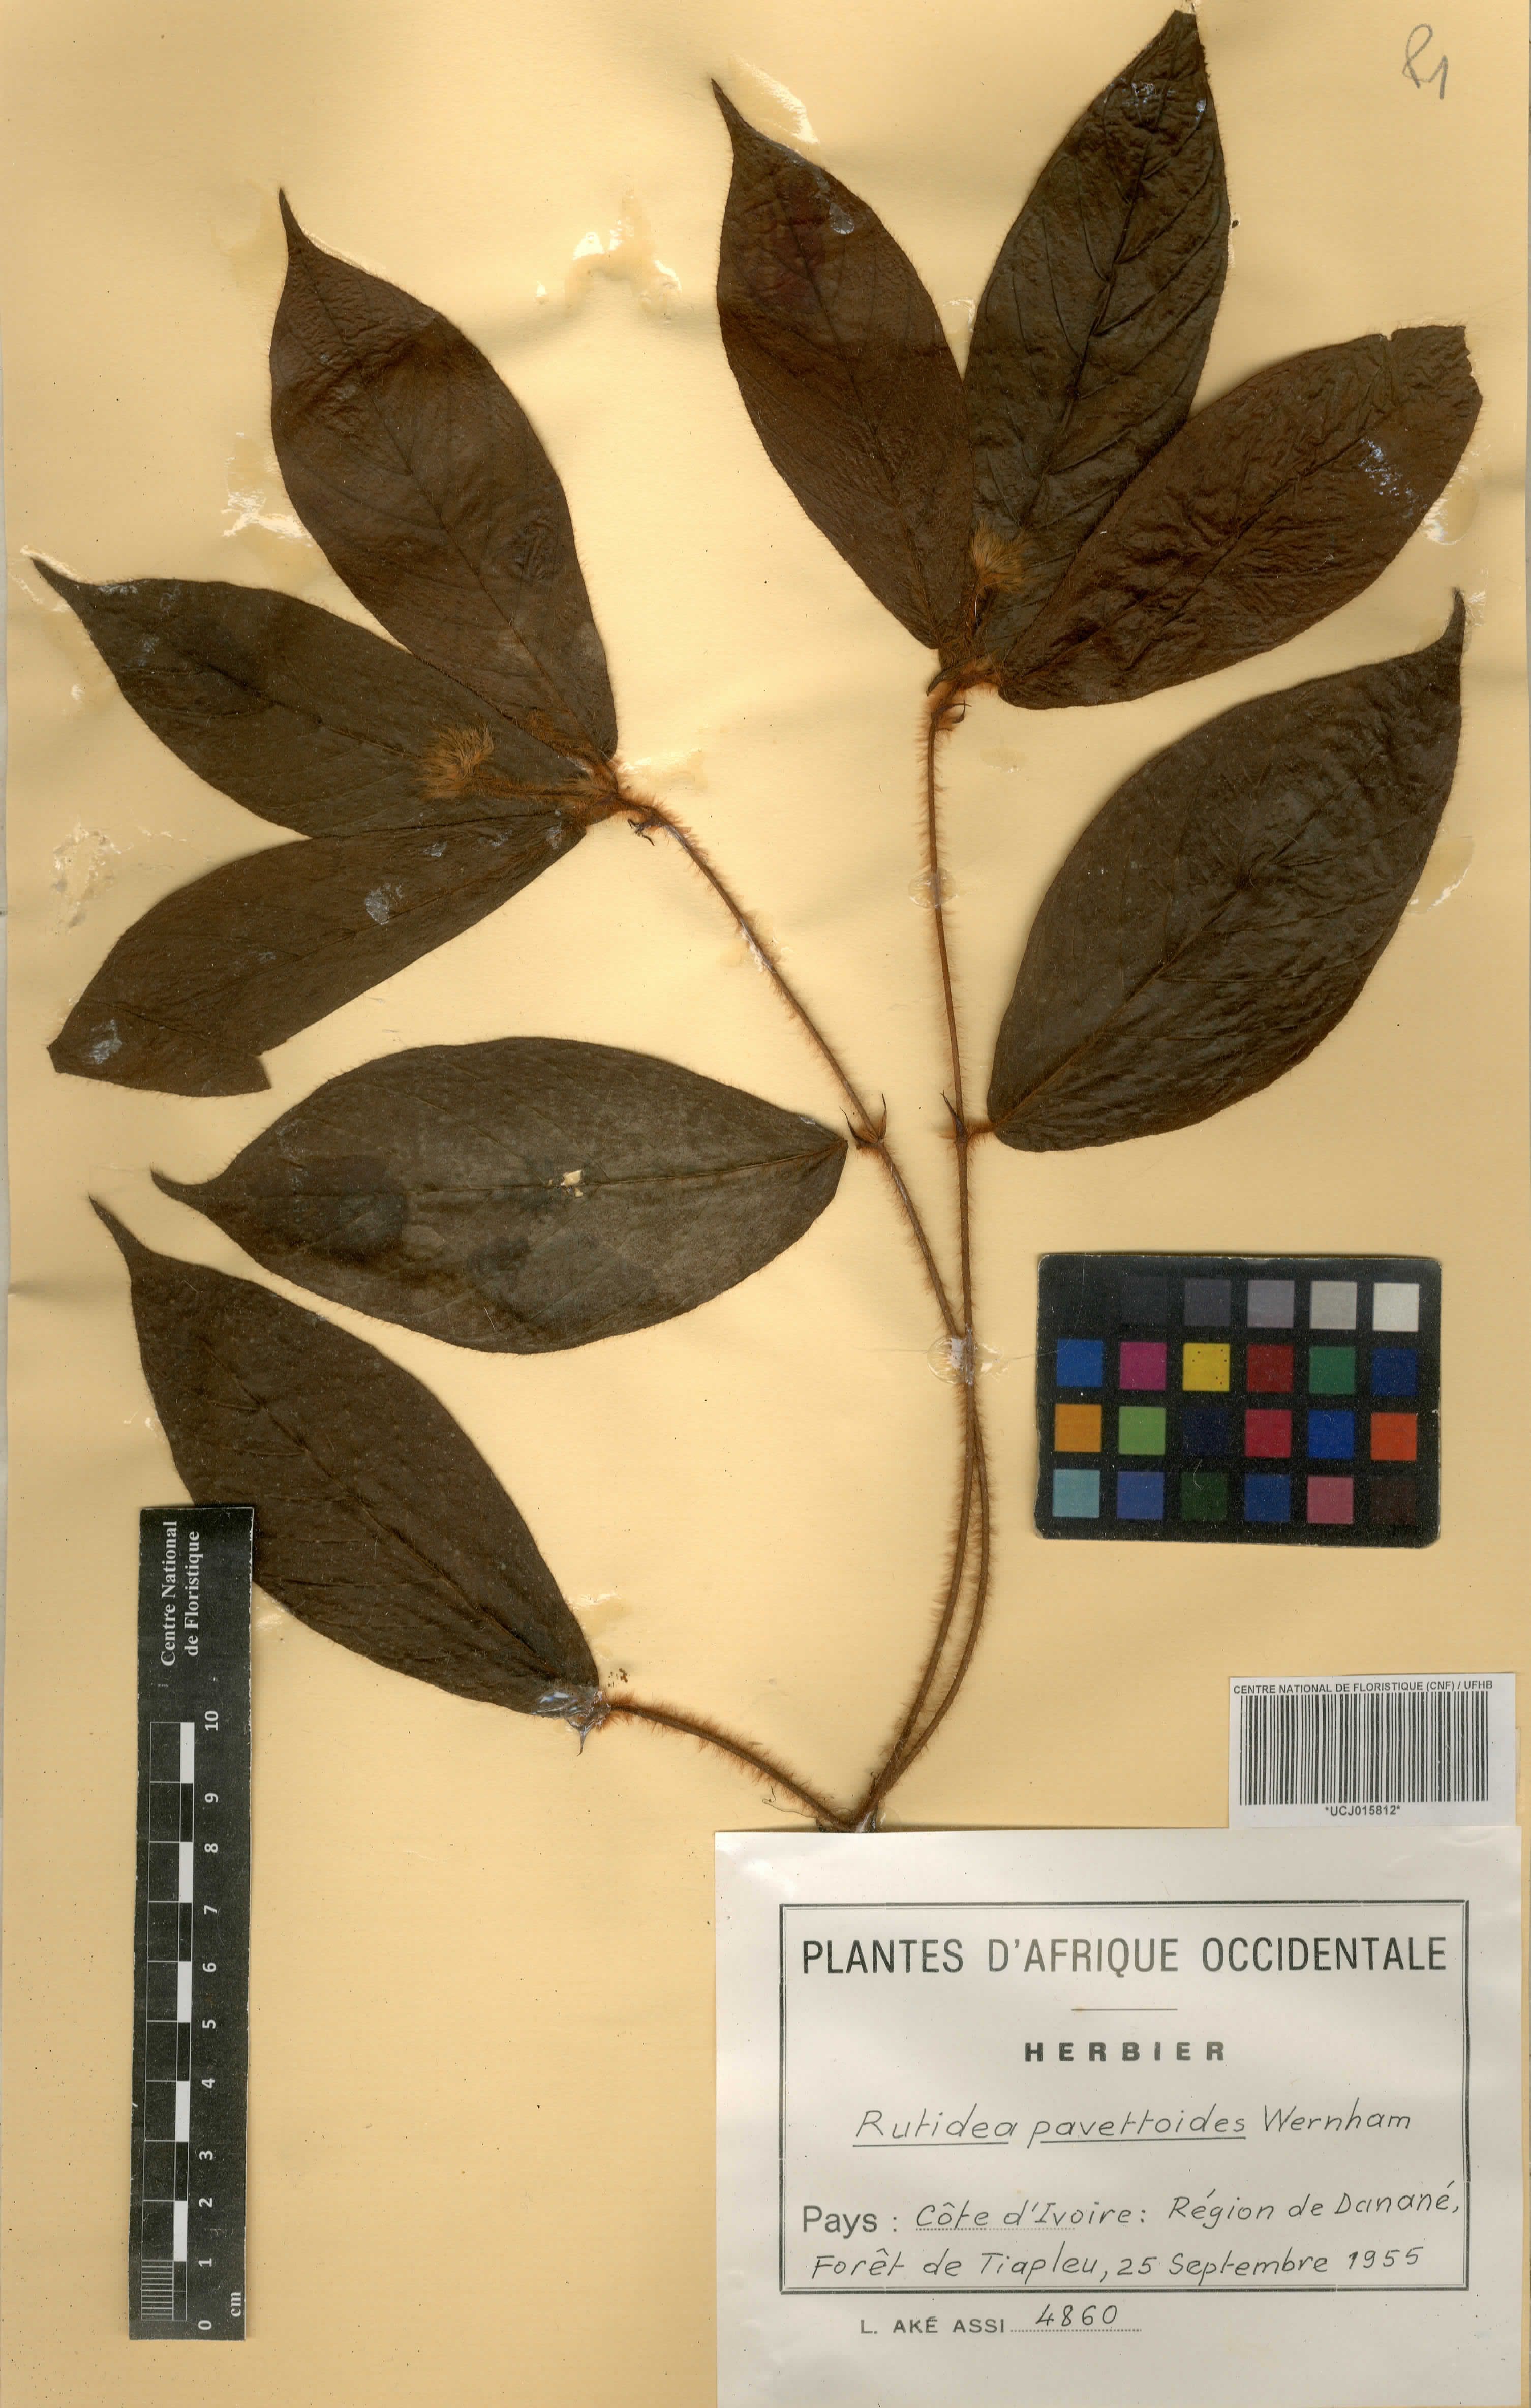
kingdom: Plantae
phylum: Tracheophyta
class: Magnoliopsida
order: Gentianales
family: Rubiaceae
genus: Rutidea
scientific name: Rutidea hispida
